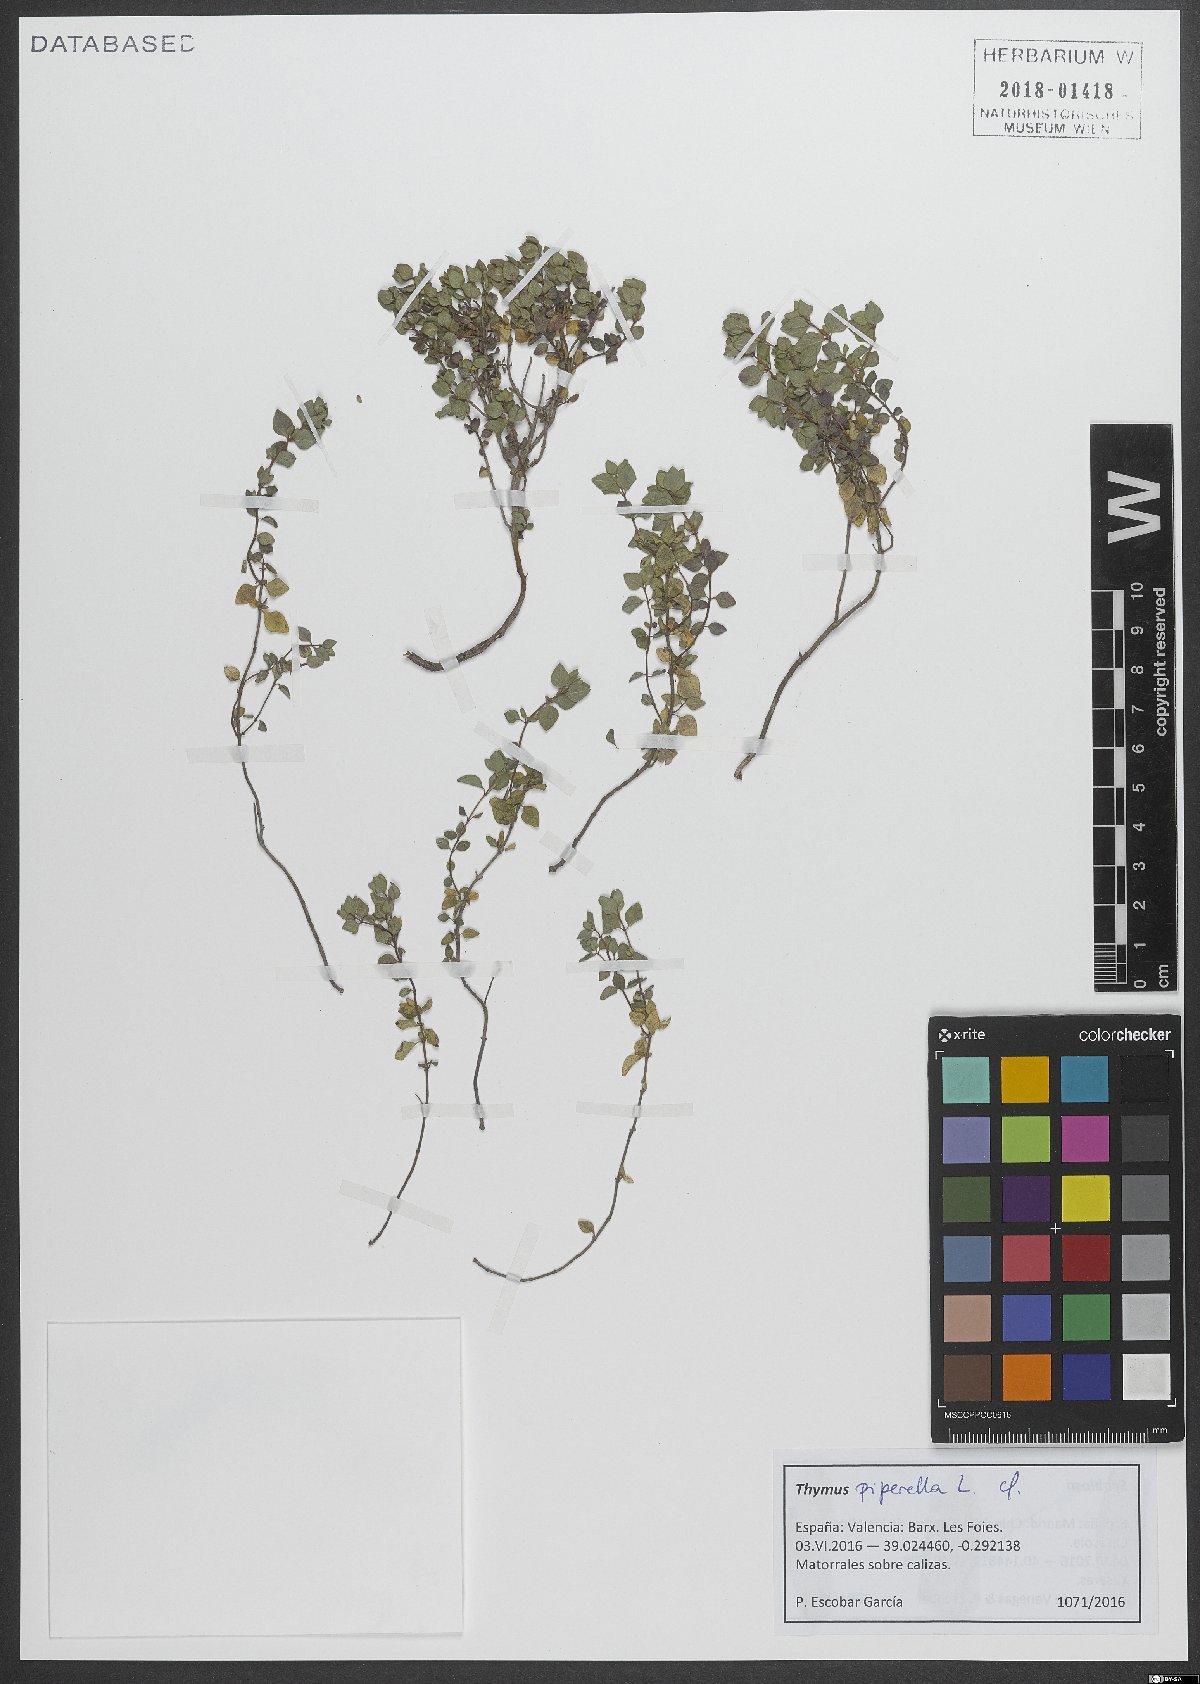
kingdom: Plantae
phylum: Tracheophyta
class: Magnoliopsida
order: Lamiales
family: Lamiaceae
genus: Thymus
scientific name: Thymus piperella
